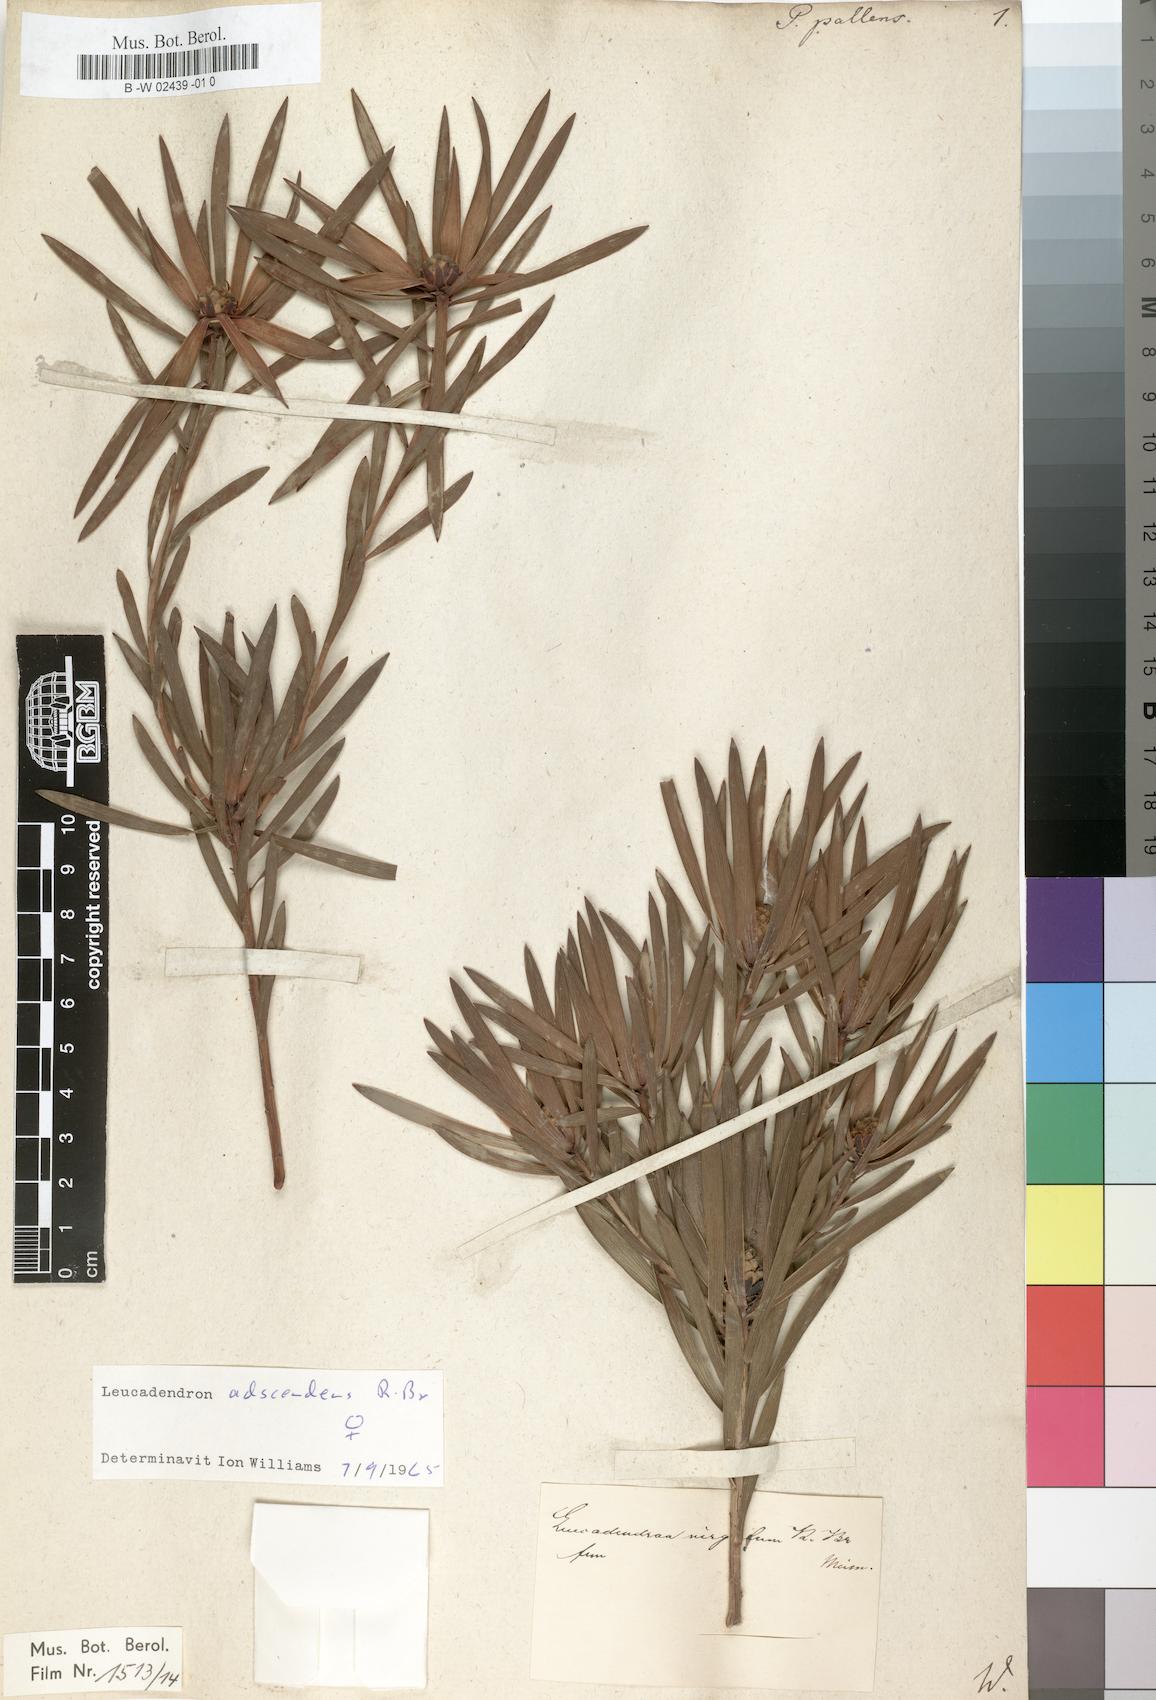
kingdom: Plantae
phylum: Tracheophyta
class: Magnoliopsida
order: Proteales
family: Proteaceae
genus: Leucadendron
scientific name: Leucadendron
